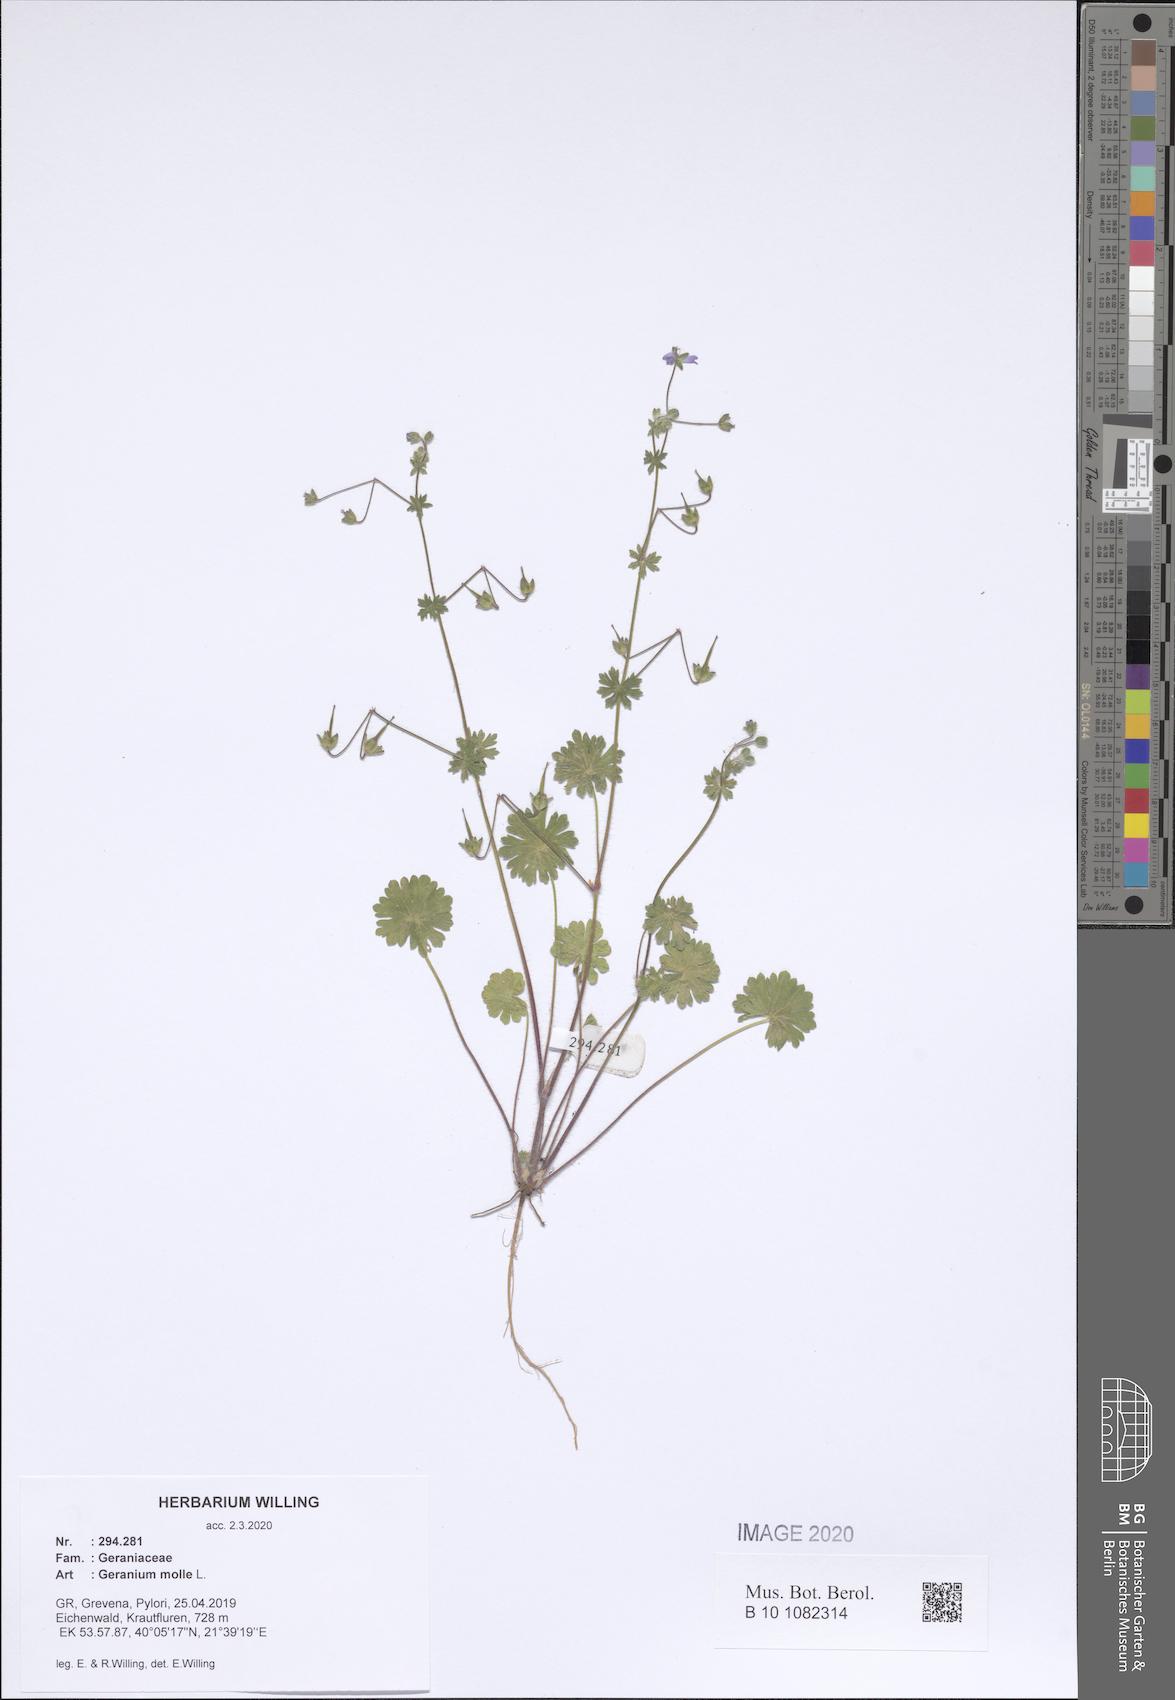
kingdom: Plantae
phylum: Tracheophyta
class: Magnoliopsida
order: Geraniales
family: Geraniaceae
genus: Geranium
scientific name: Geranium molle
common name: Dove's-foot crane's-bill
